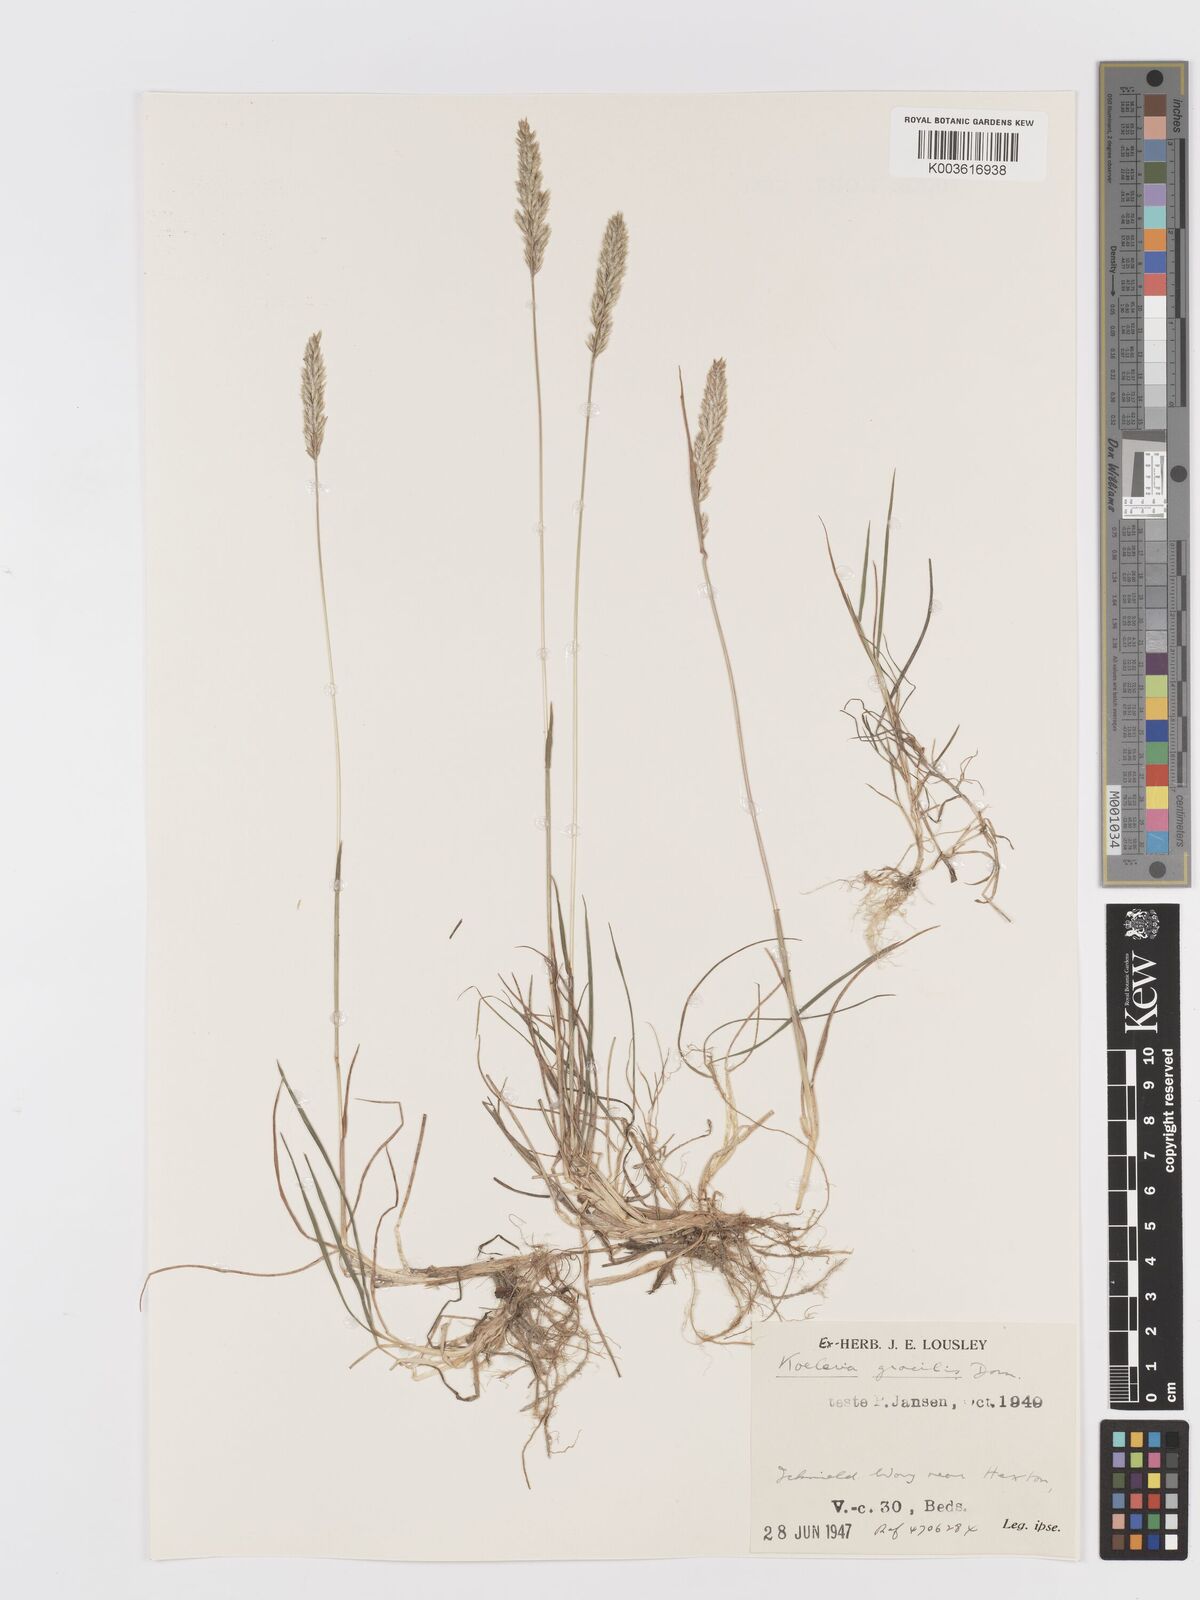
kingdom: Plantae
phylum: Tracheophyta
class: Liliopsida
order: Poales
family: Poaceae
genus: Koeleria
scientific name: Koeleria macrantha
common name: Crested hair-grass
